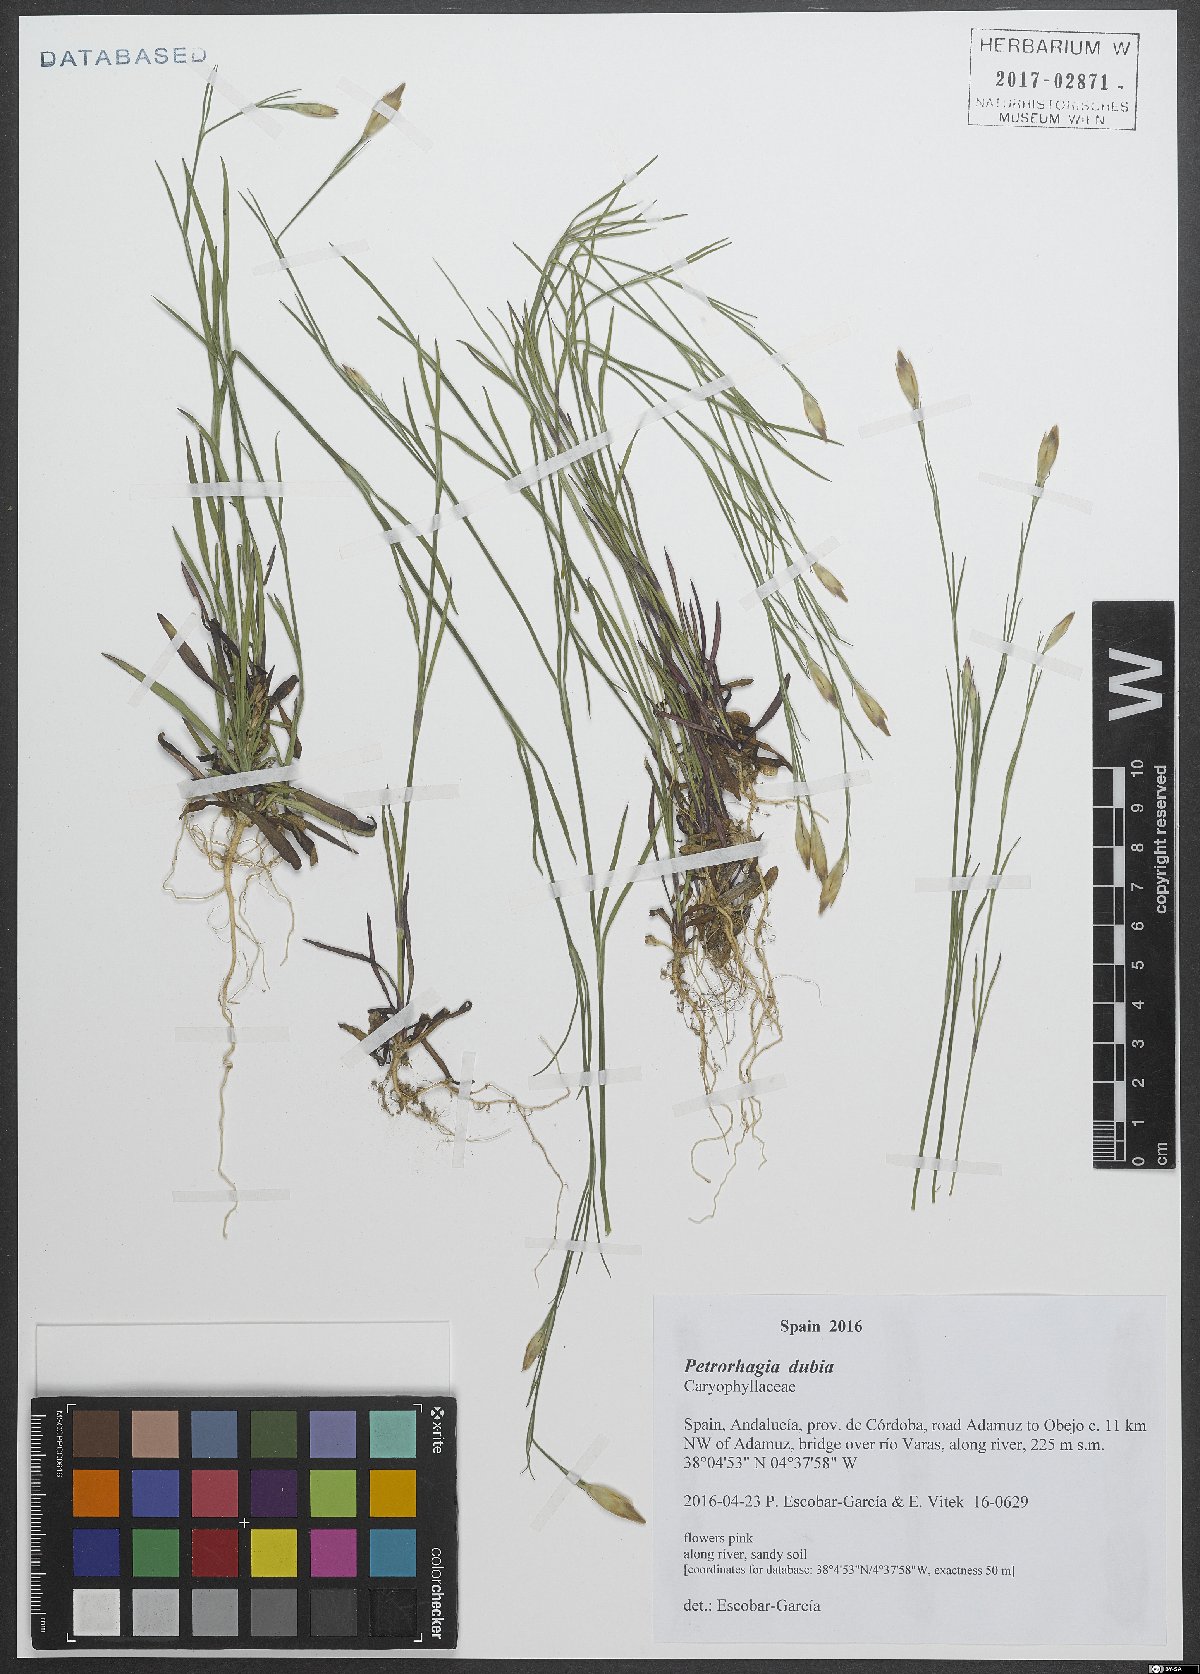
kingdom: Plantae
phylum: Tracheophyta
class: Magnoliopsida
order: Caryophyllales
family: Caryophyllaceae
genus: Petrorhagia
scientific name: Petrorhagia dubia
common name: Hairypink
